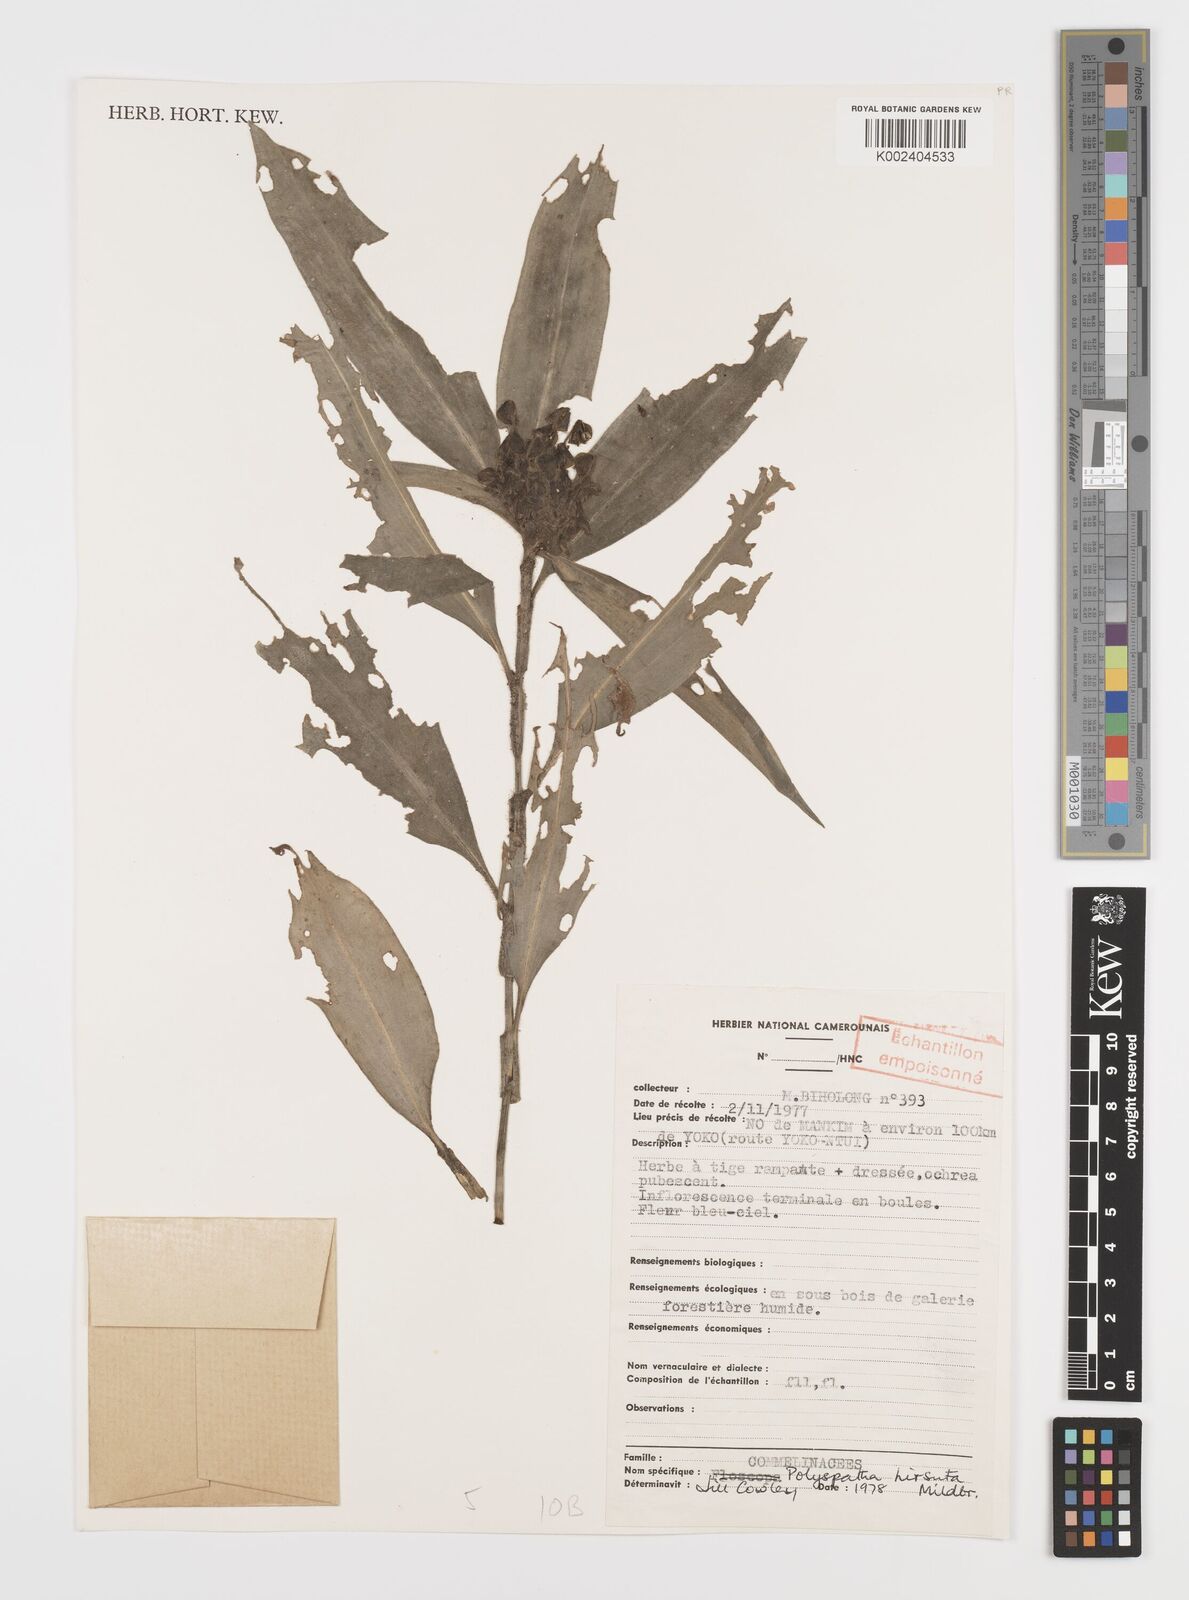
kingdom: Plantae
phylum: Tracheophyta
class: Liliopsida
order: Commelinales
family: Commelinaceae
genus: Polyspatha
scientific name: Polyspatha hirsuta
